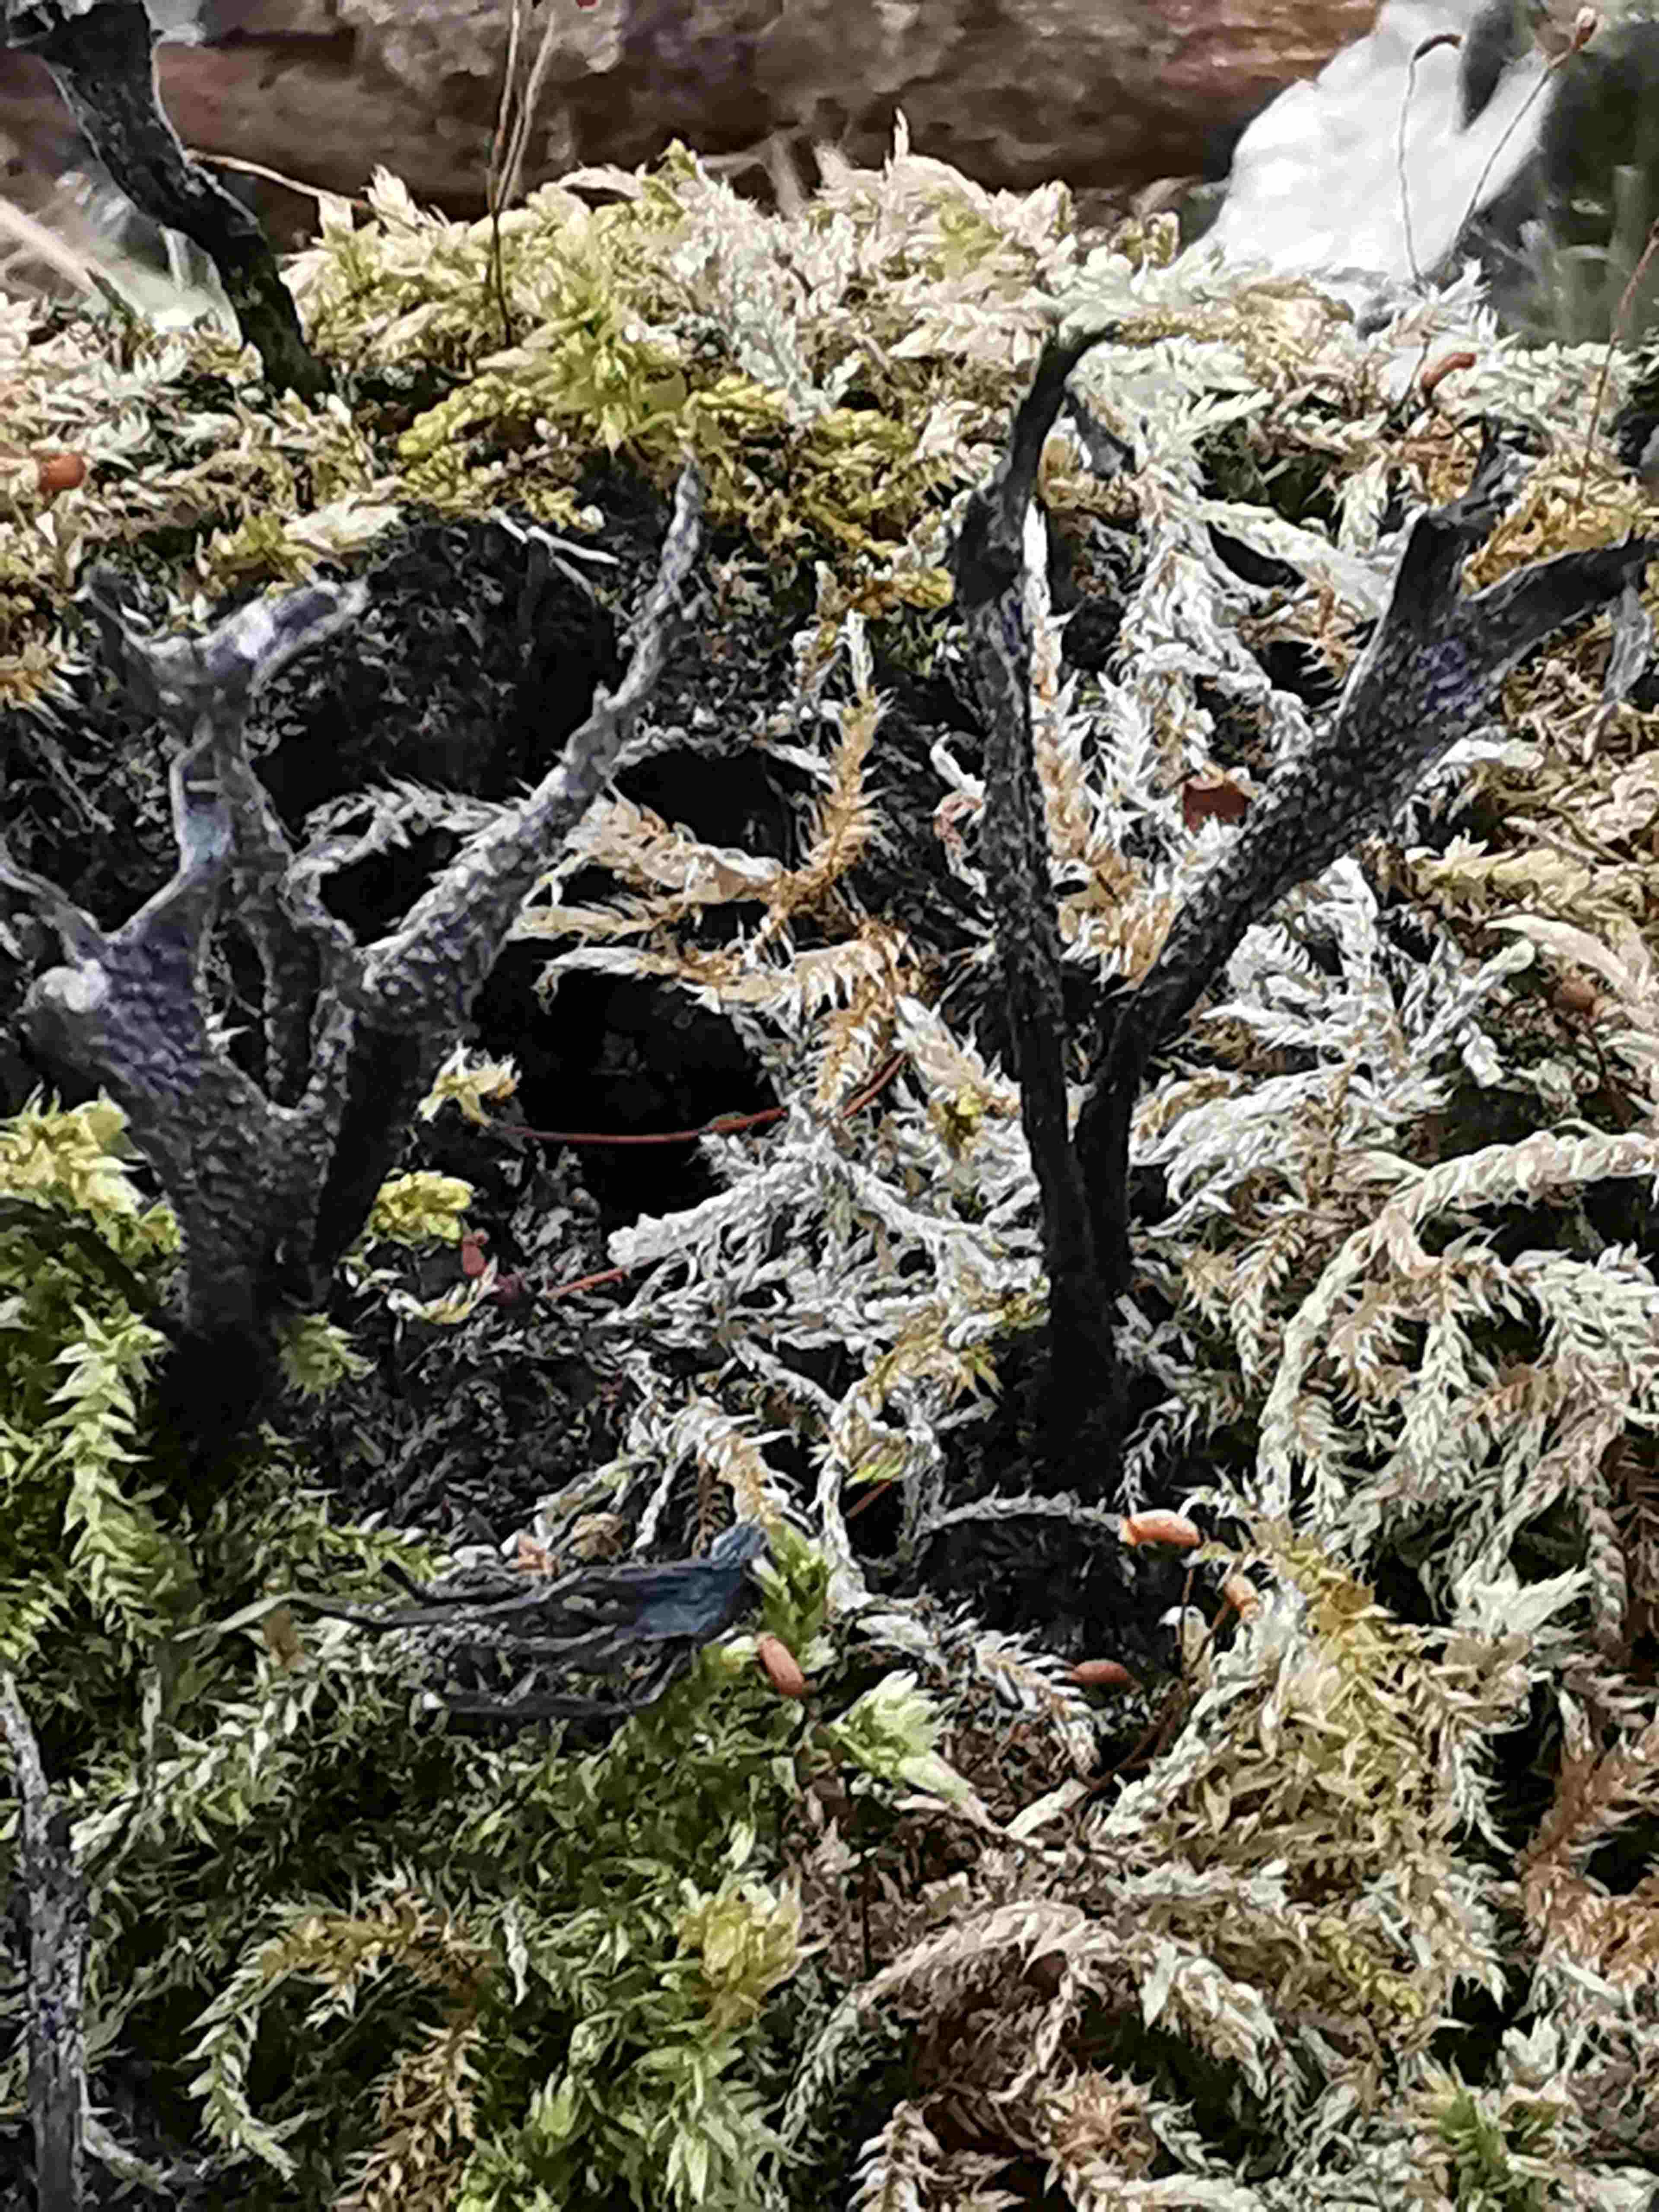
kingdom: Fungi
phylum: Ascomycota
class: Sordariomycetes
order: Xylariales
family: Xylariaceae
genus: Xylaria
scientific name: Xylaria hypoxylon
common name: grenet stødsvamp
